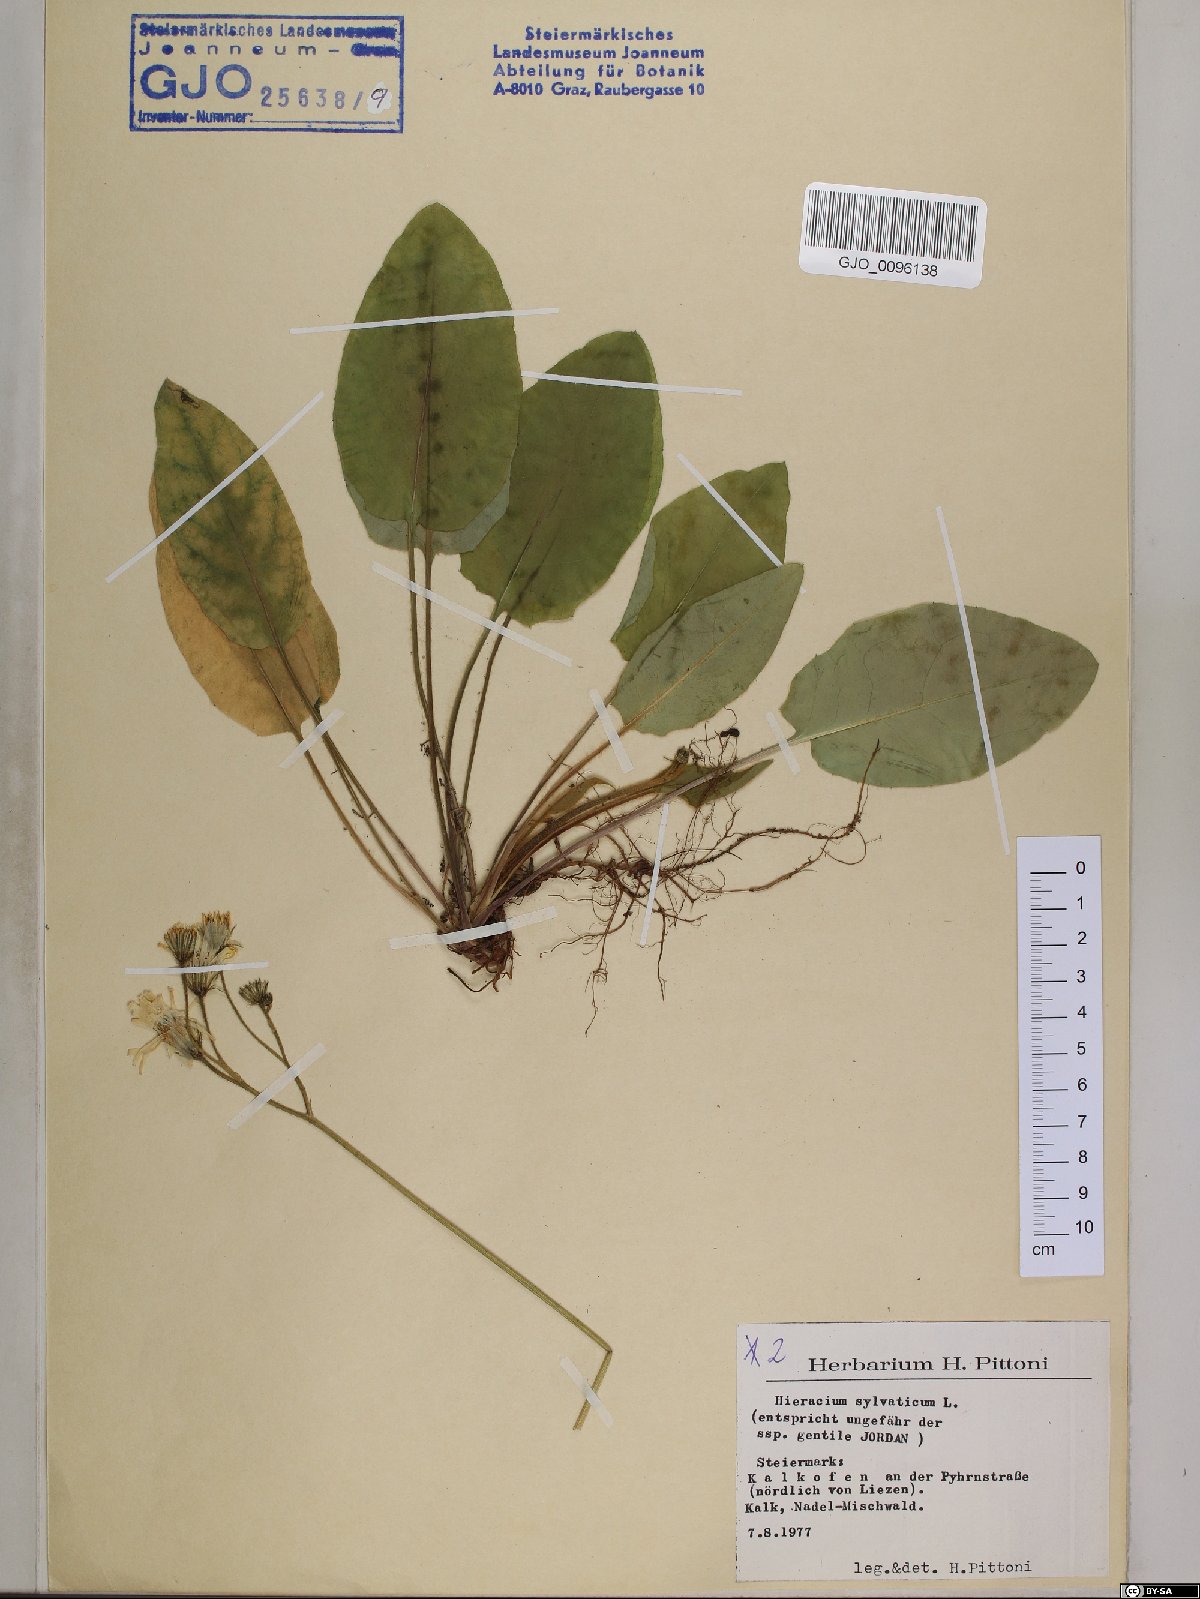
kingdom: Plantae
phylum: Tracheophyta
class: Magnoliopsida
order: Asterales
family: Asteraceae
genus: Hieracium
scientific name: Hieracium murorum
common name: Wall hawkweed
